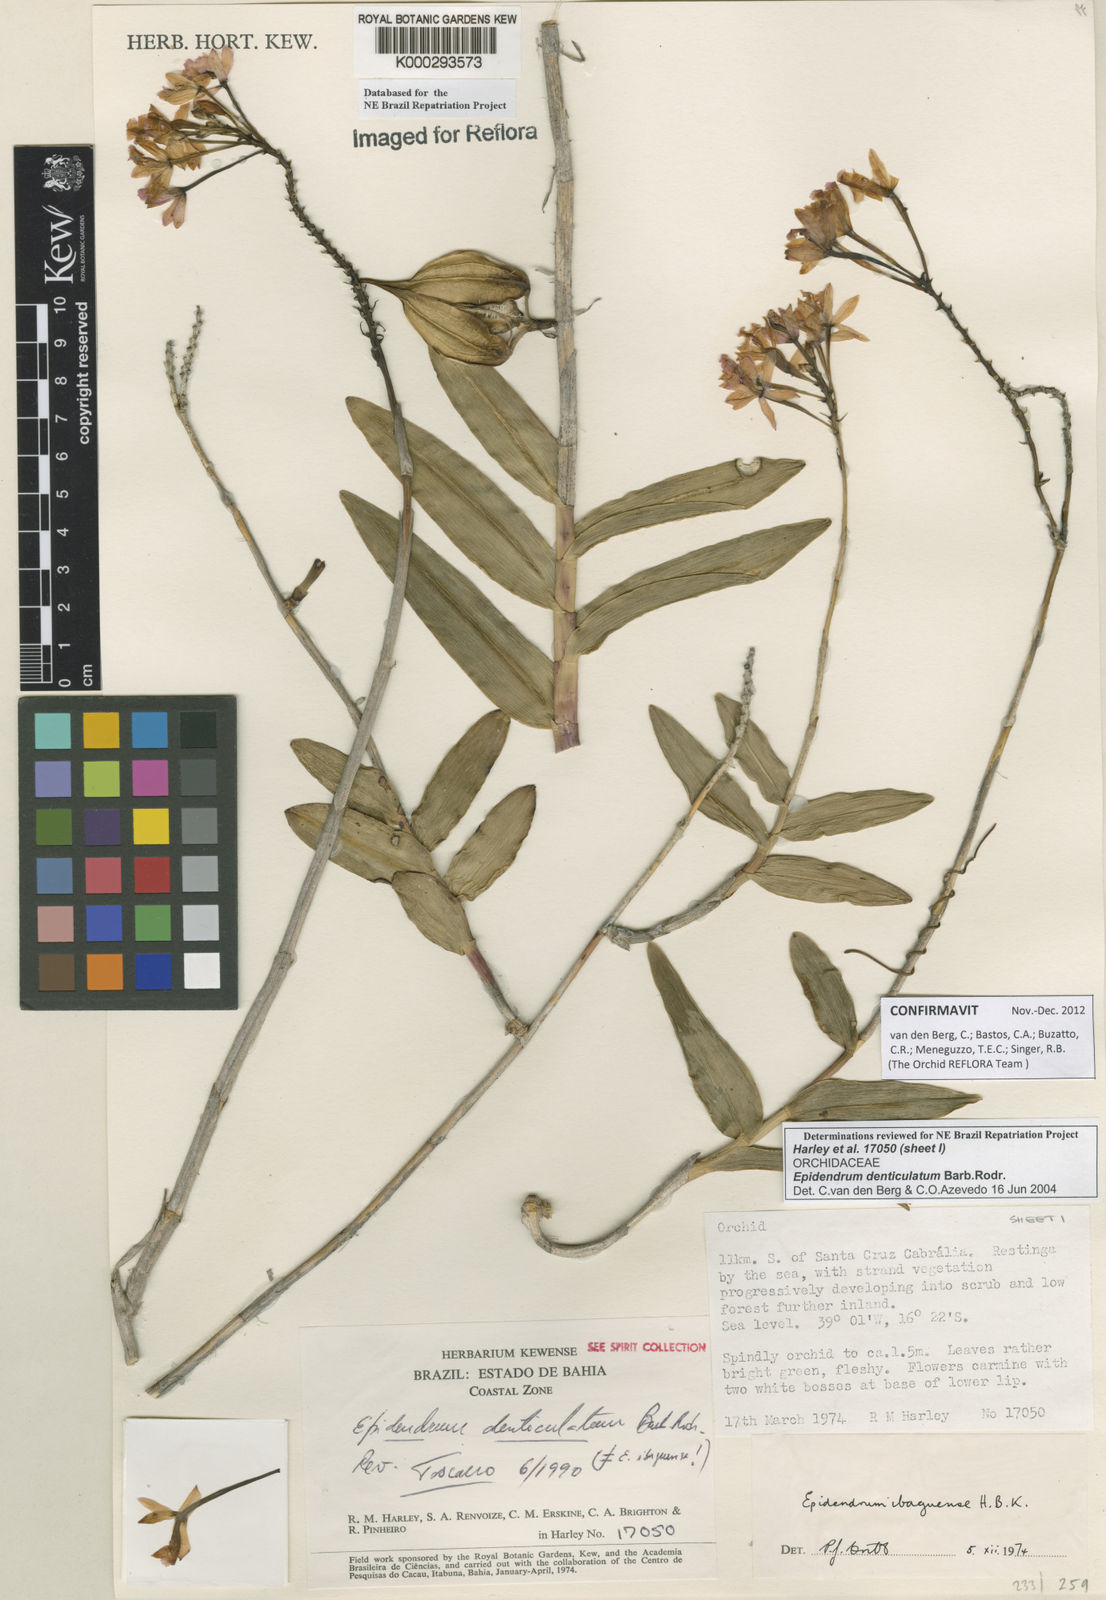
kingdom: Plantae
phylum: Tracheophyta
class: Liliopsida
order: Asparagales
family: Orchidaceae
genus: Epidendrum
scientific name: Epidendrum denticulatum
